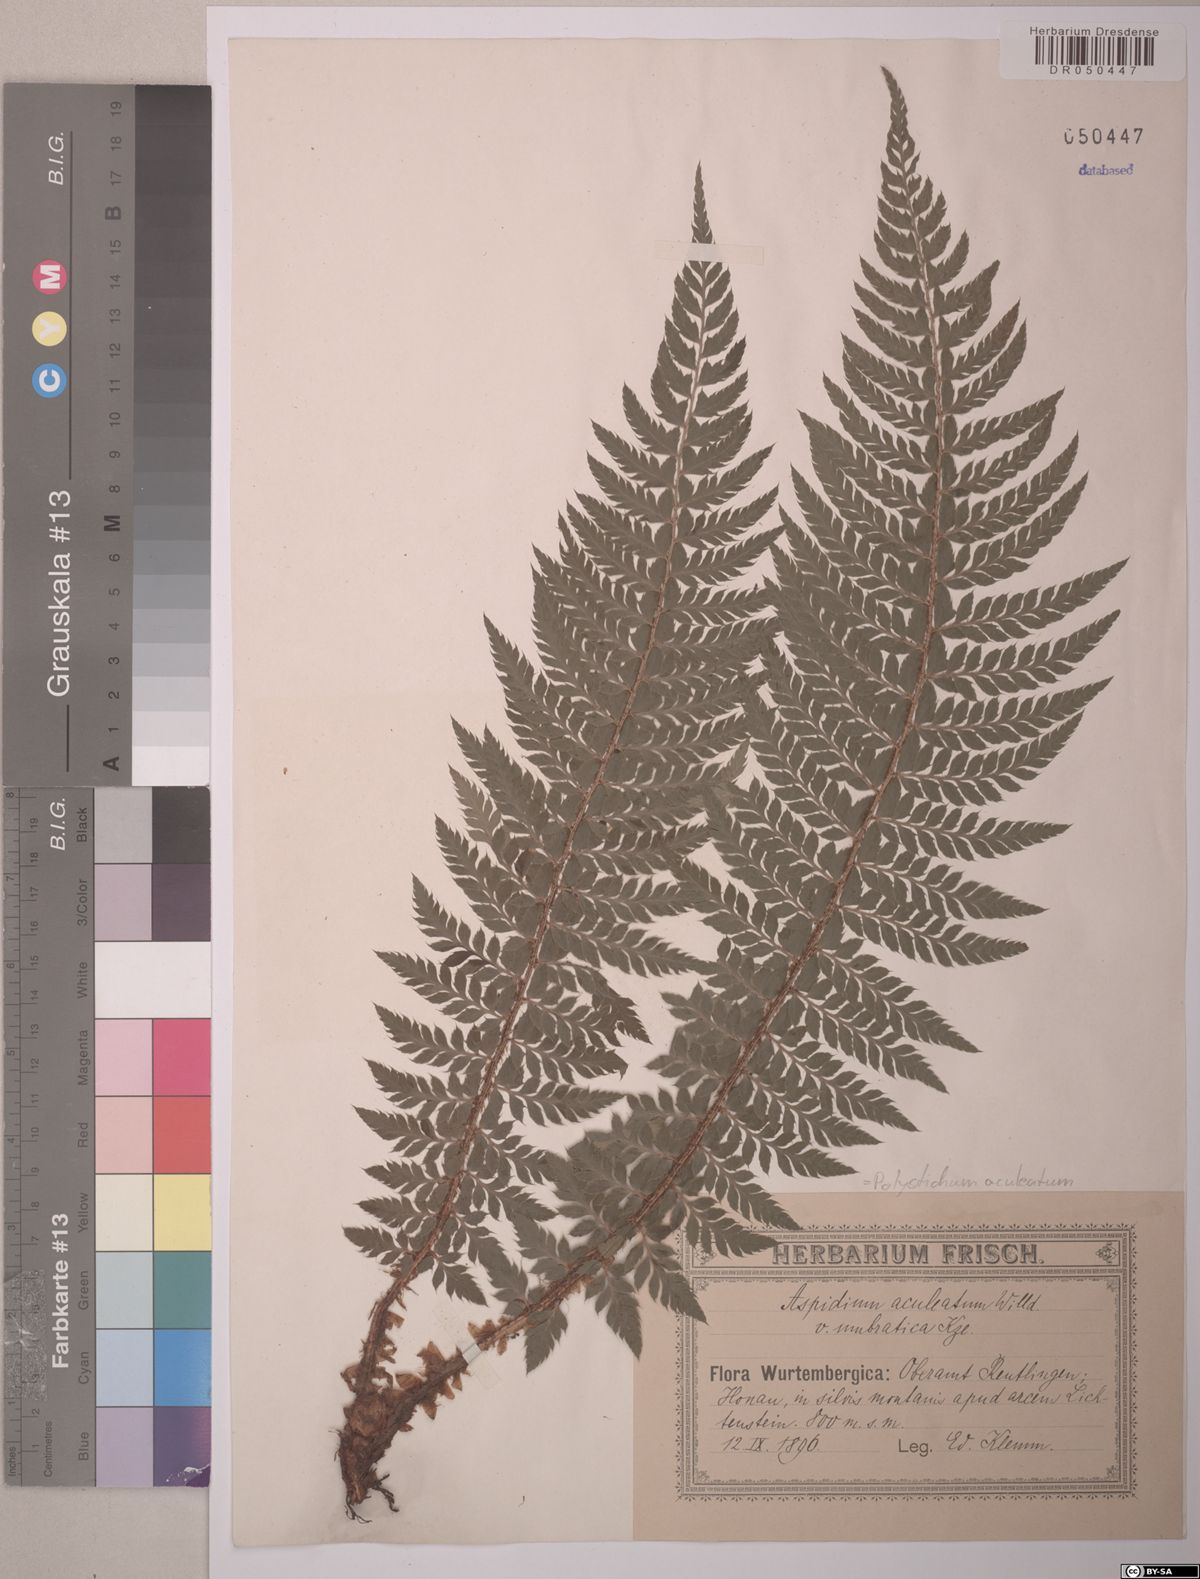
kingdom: Plantae
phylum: Tracheophyta
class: Polypodiopsida
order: Polypodiales
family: Dryopteridaceae
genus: Polystichum
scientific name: Polystichum aculeatum
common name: Hard shield-fern
